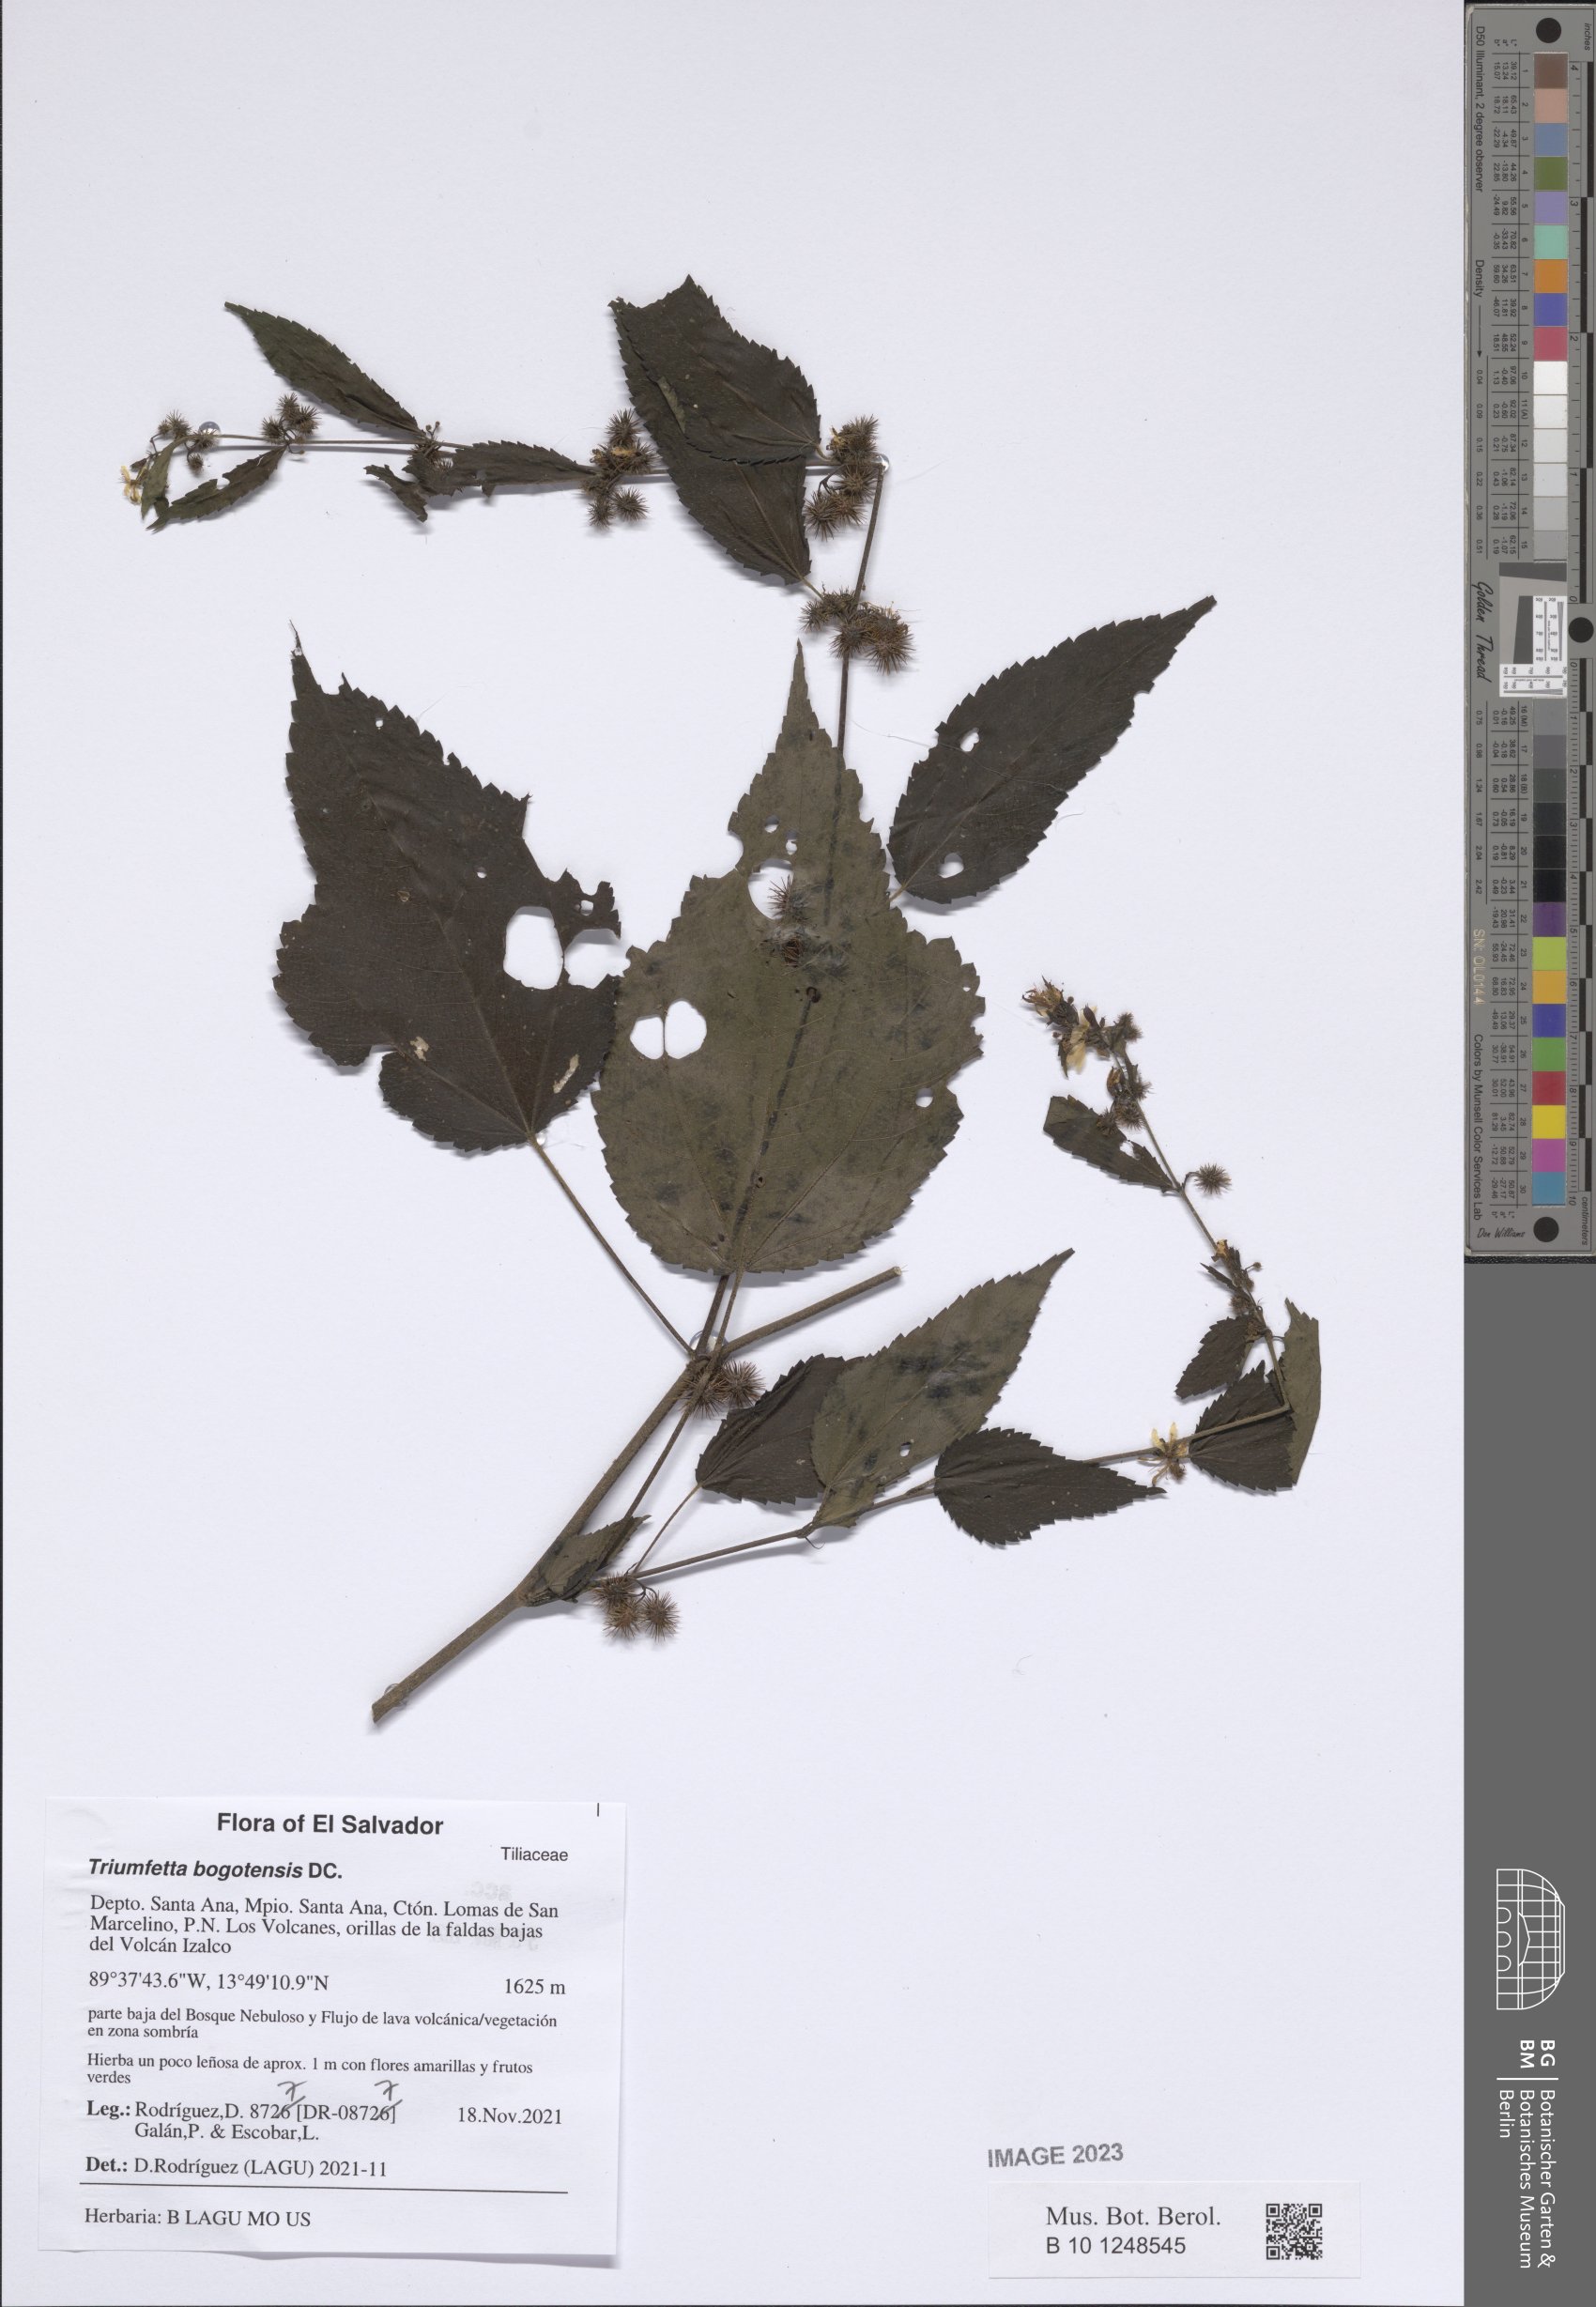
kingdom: Plantae
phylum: Tracheophyta
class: Magnoliopsida
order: Malvales
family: Malvaceae
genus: Triumfetta
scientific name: Triumfetta bogotensis
